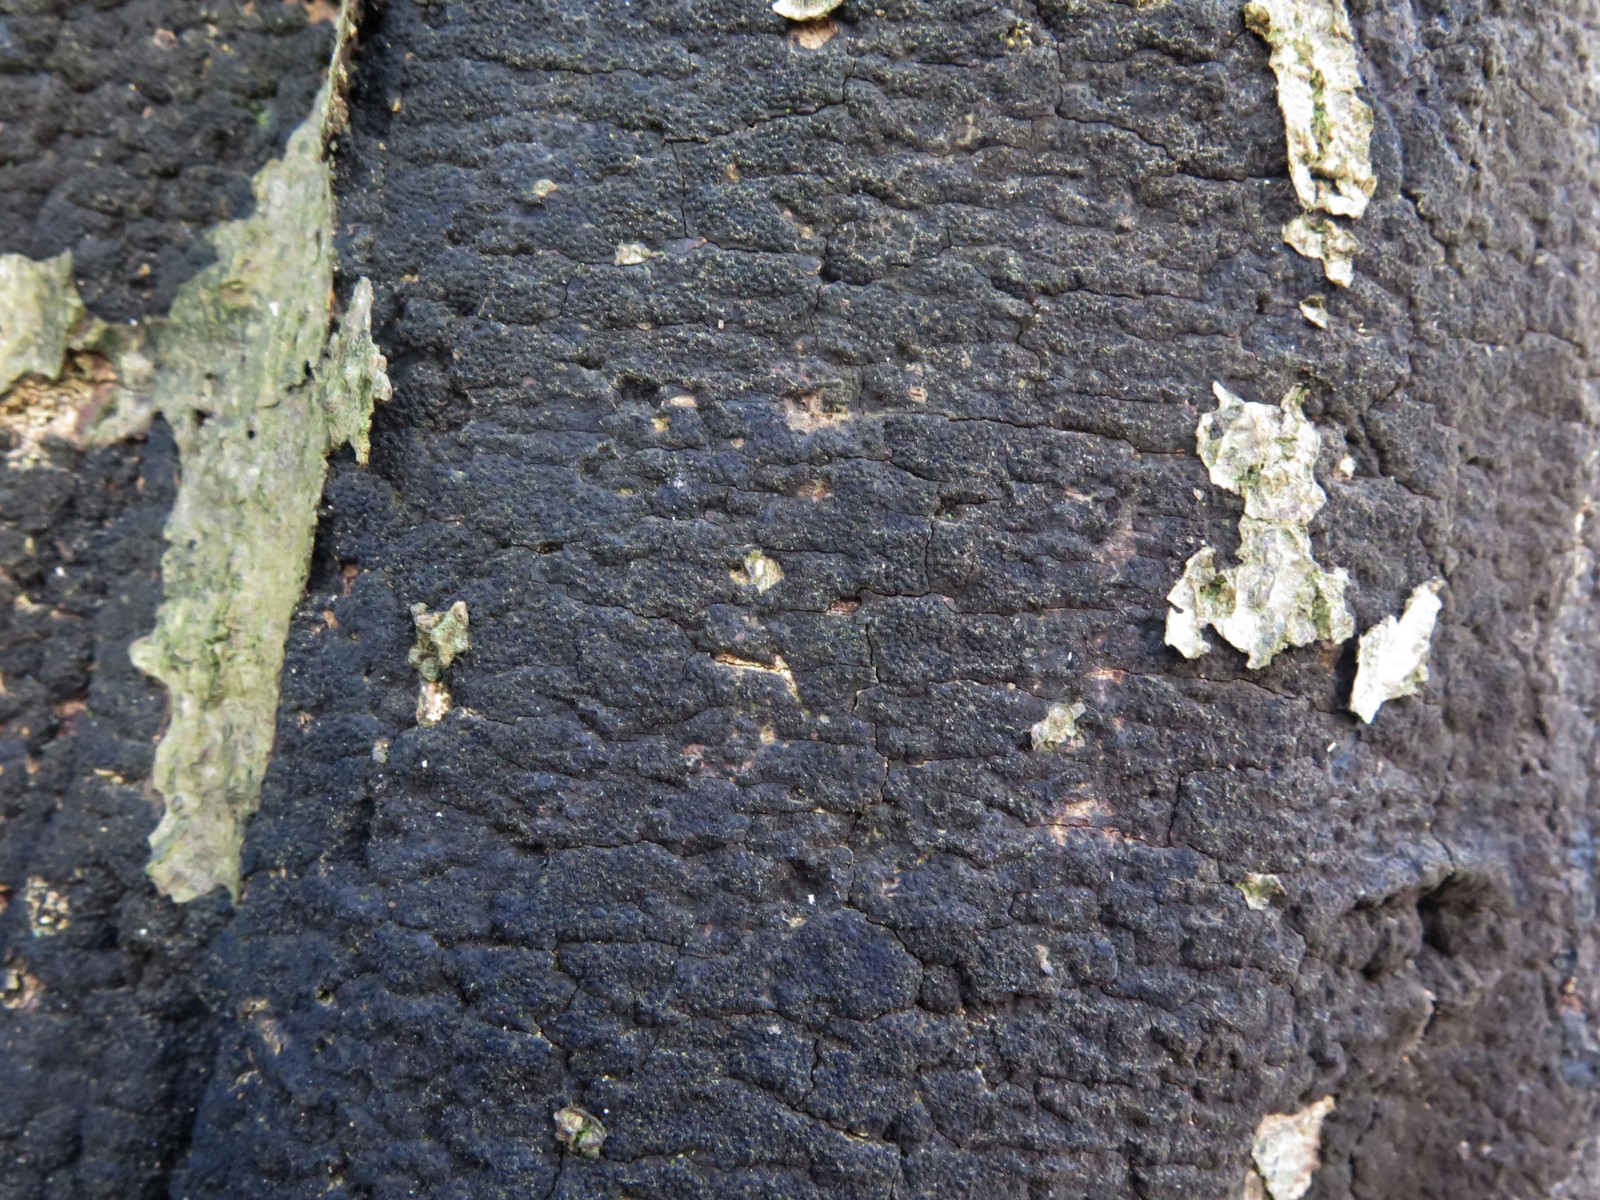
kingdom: Fungi
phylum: Ascomycota
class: Sordariomycetes
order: Xylariales
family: Diatrypaceae
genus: Eutypa
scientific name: Eutypa spinosa
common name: grov kulskorpe
